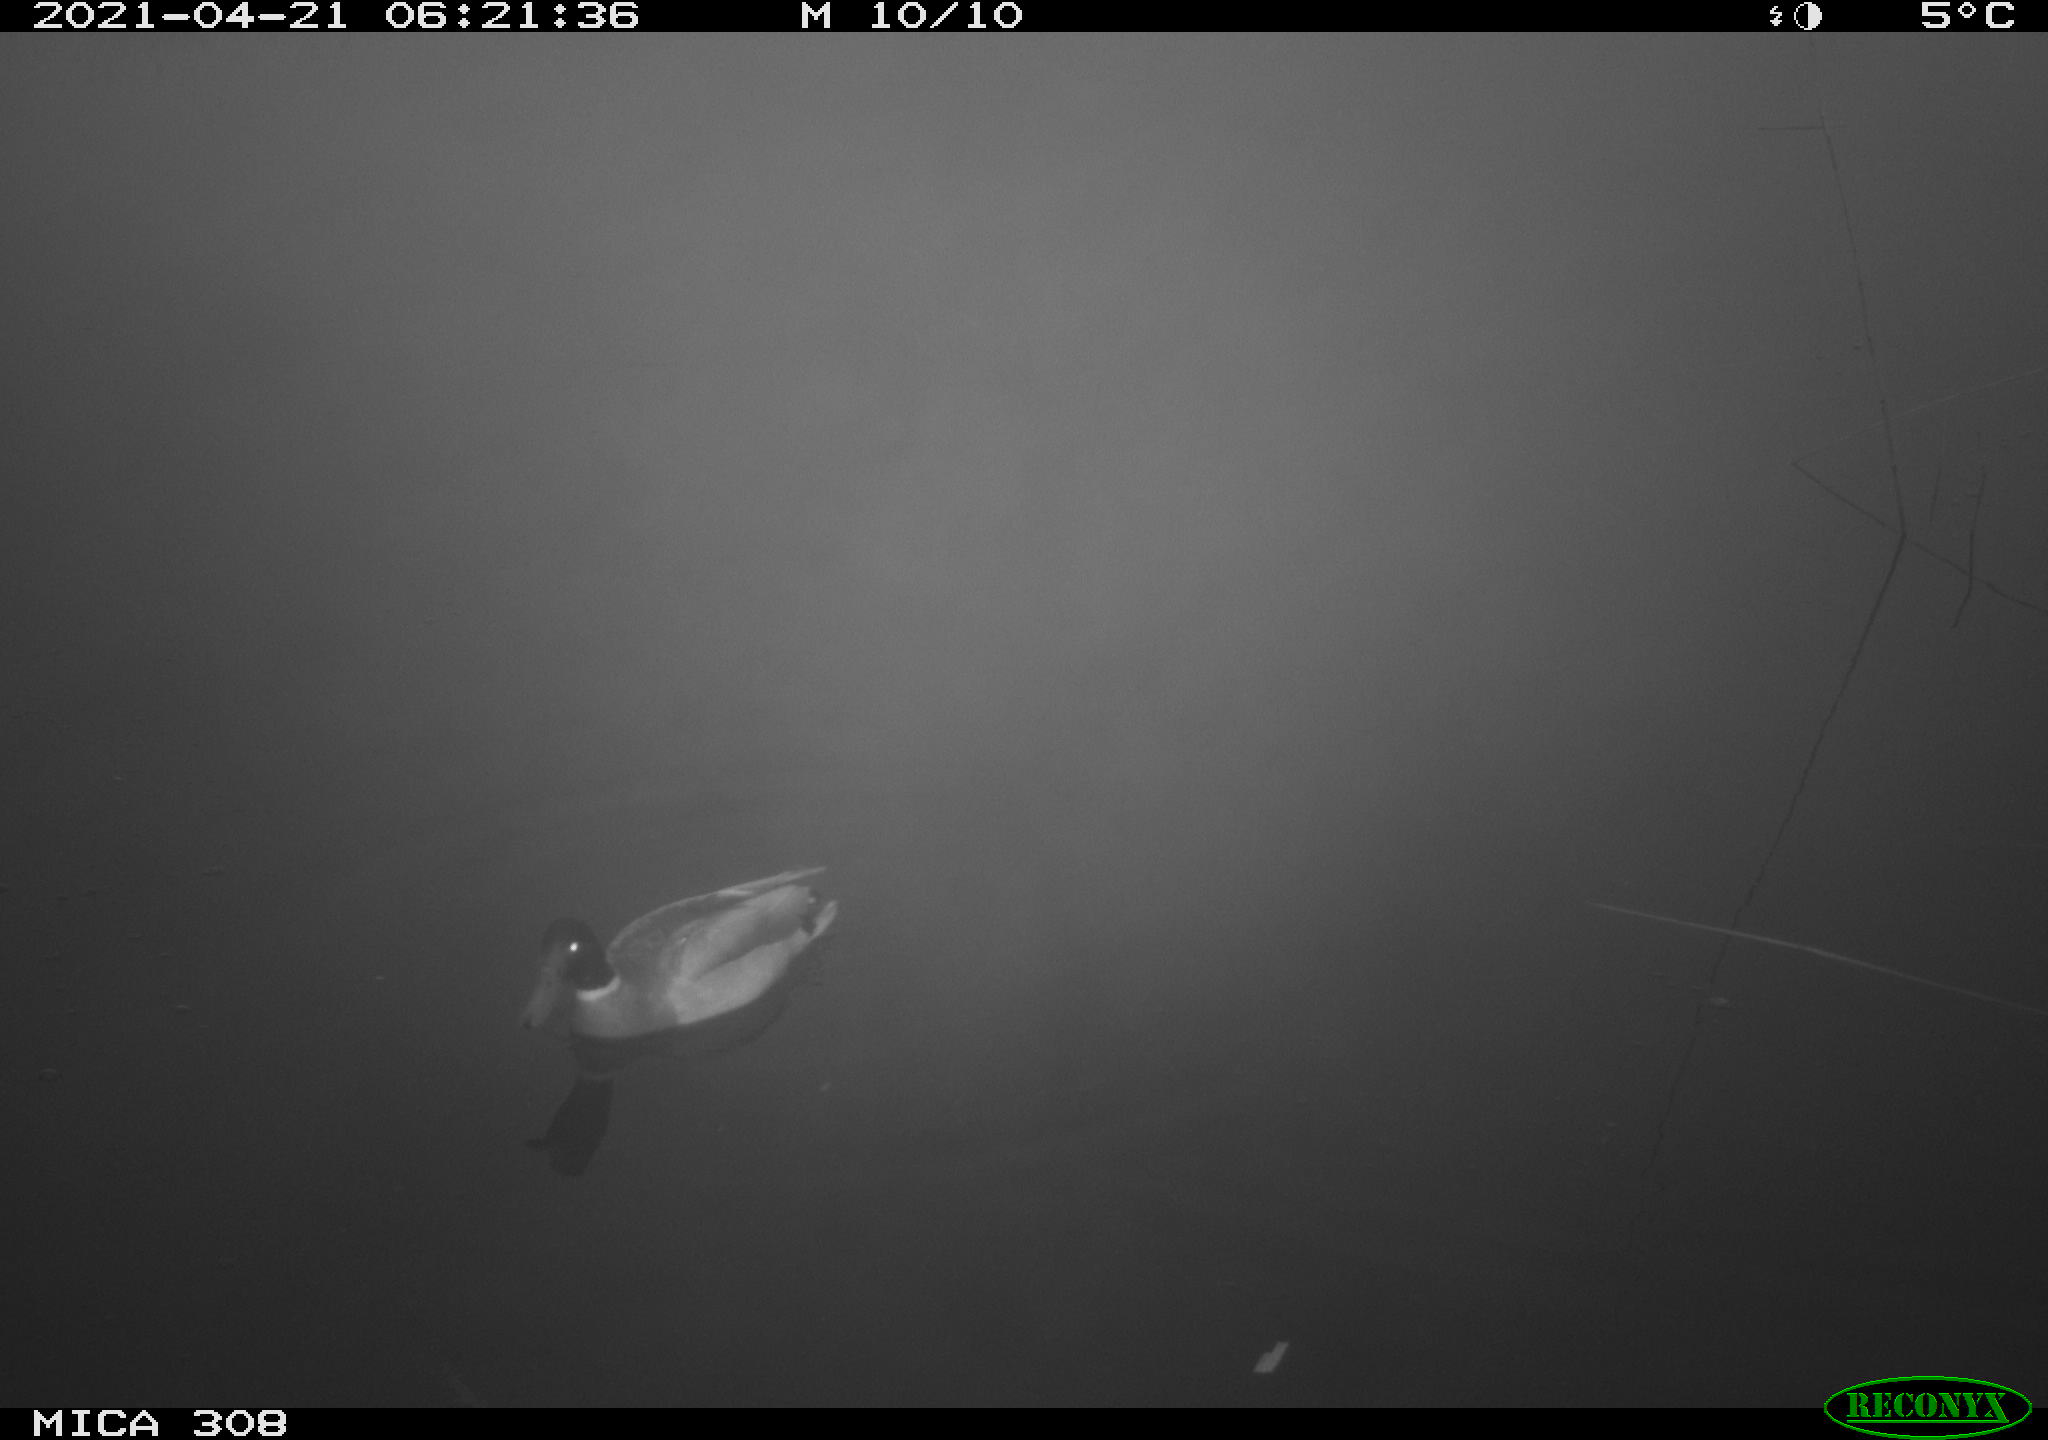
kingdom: Animalia
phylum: Chordata
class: Aves
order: Anseriformes
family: Anatidae
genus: Anas
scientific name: Anas platyrhynchos
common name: Mallard
